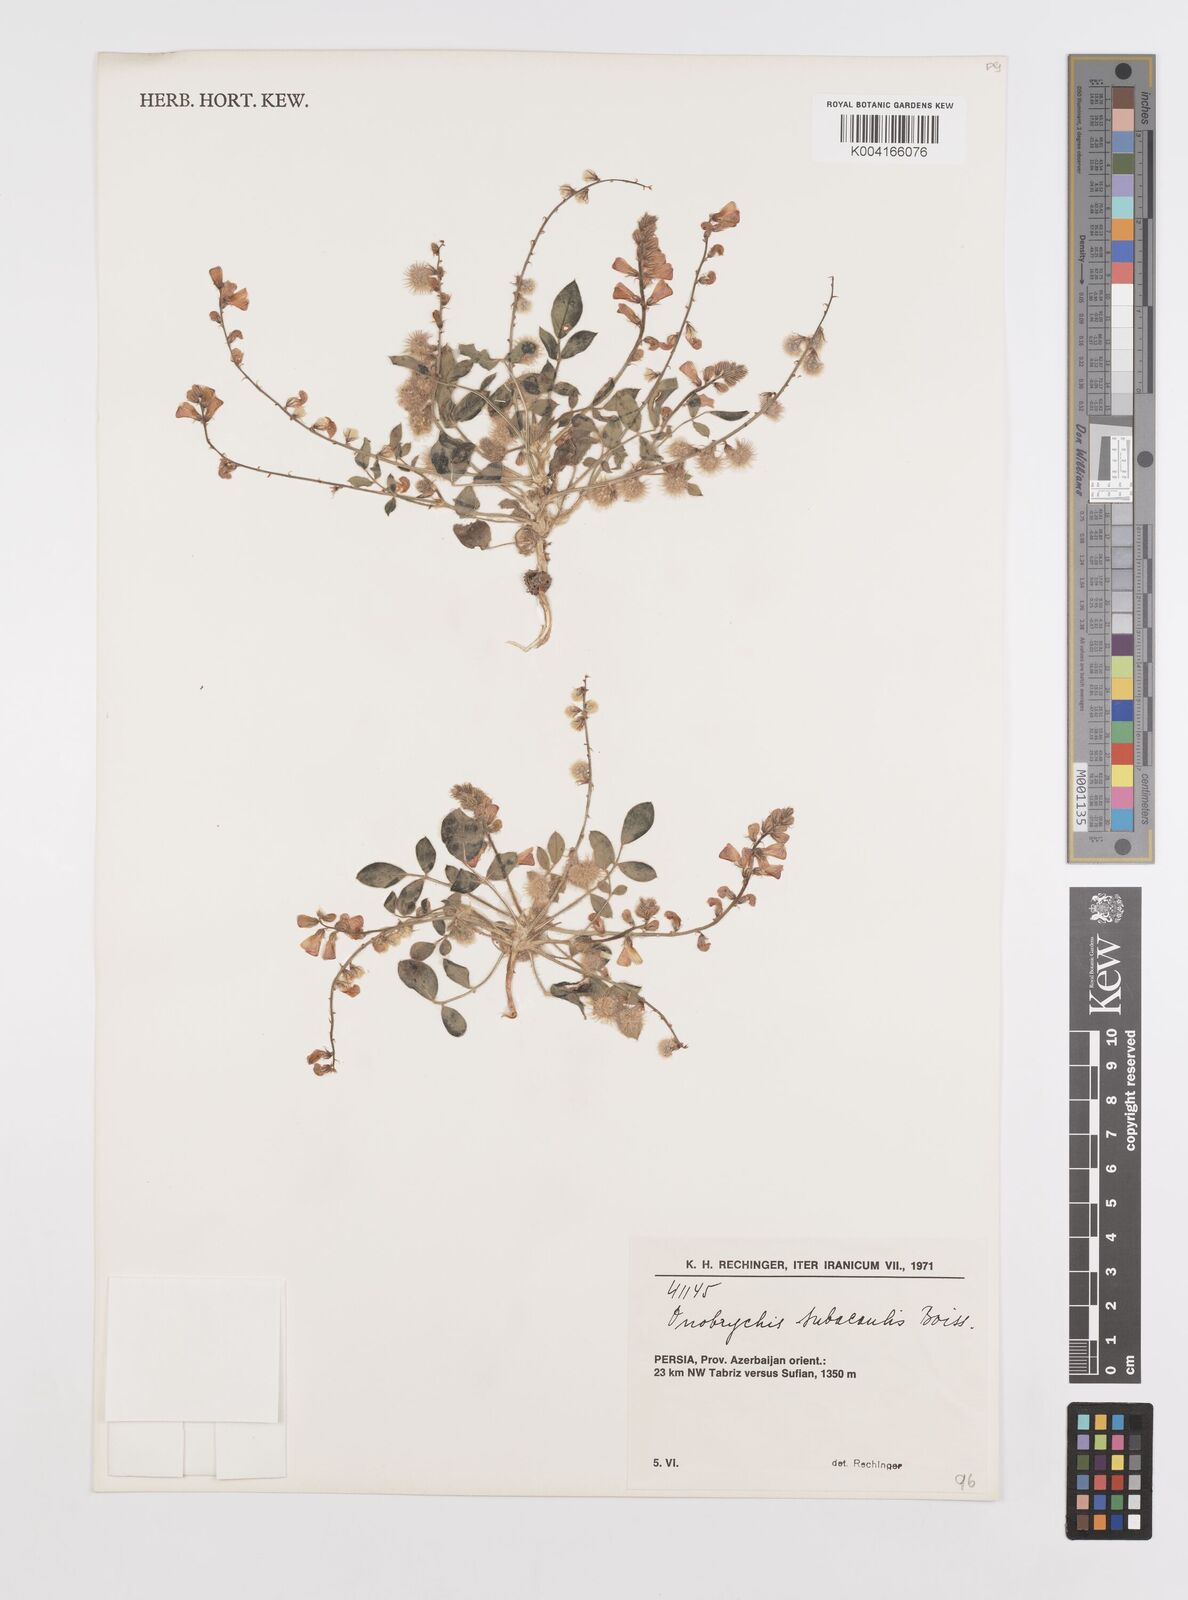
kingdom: Plantae
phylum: Tracheophyta
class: Magnoliopsida
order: Fabales
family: Fabaceae
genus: Onobrychis
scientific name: Onobrychis subacaulis
